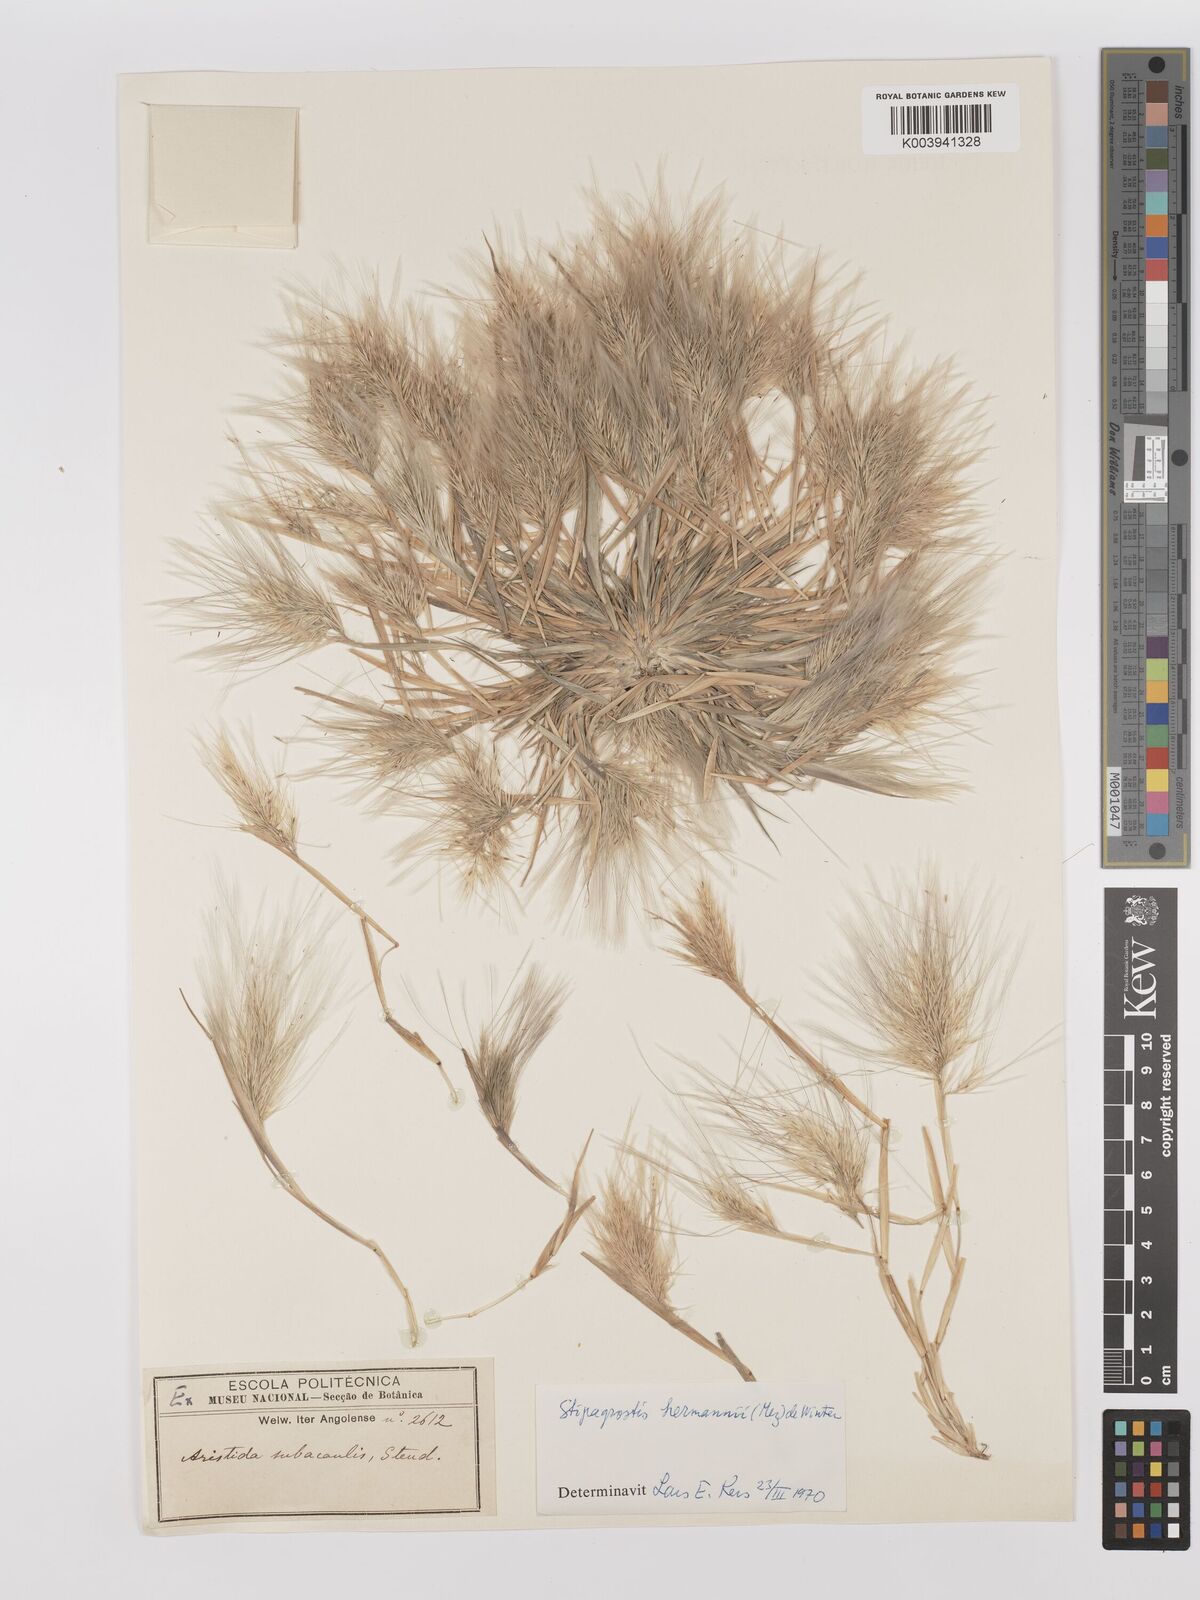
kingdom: Plantae
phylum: Tracheophyta
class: Liliopsida
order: Poales
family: Poaceae
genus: Stipagrostis
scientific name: Stipagrostis hermannii
